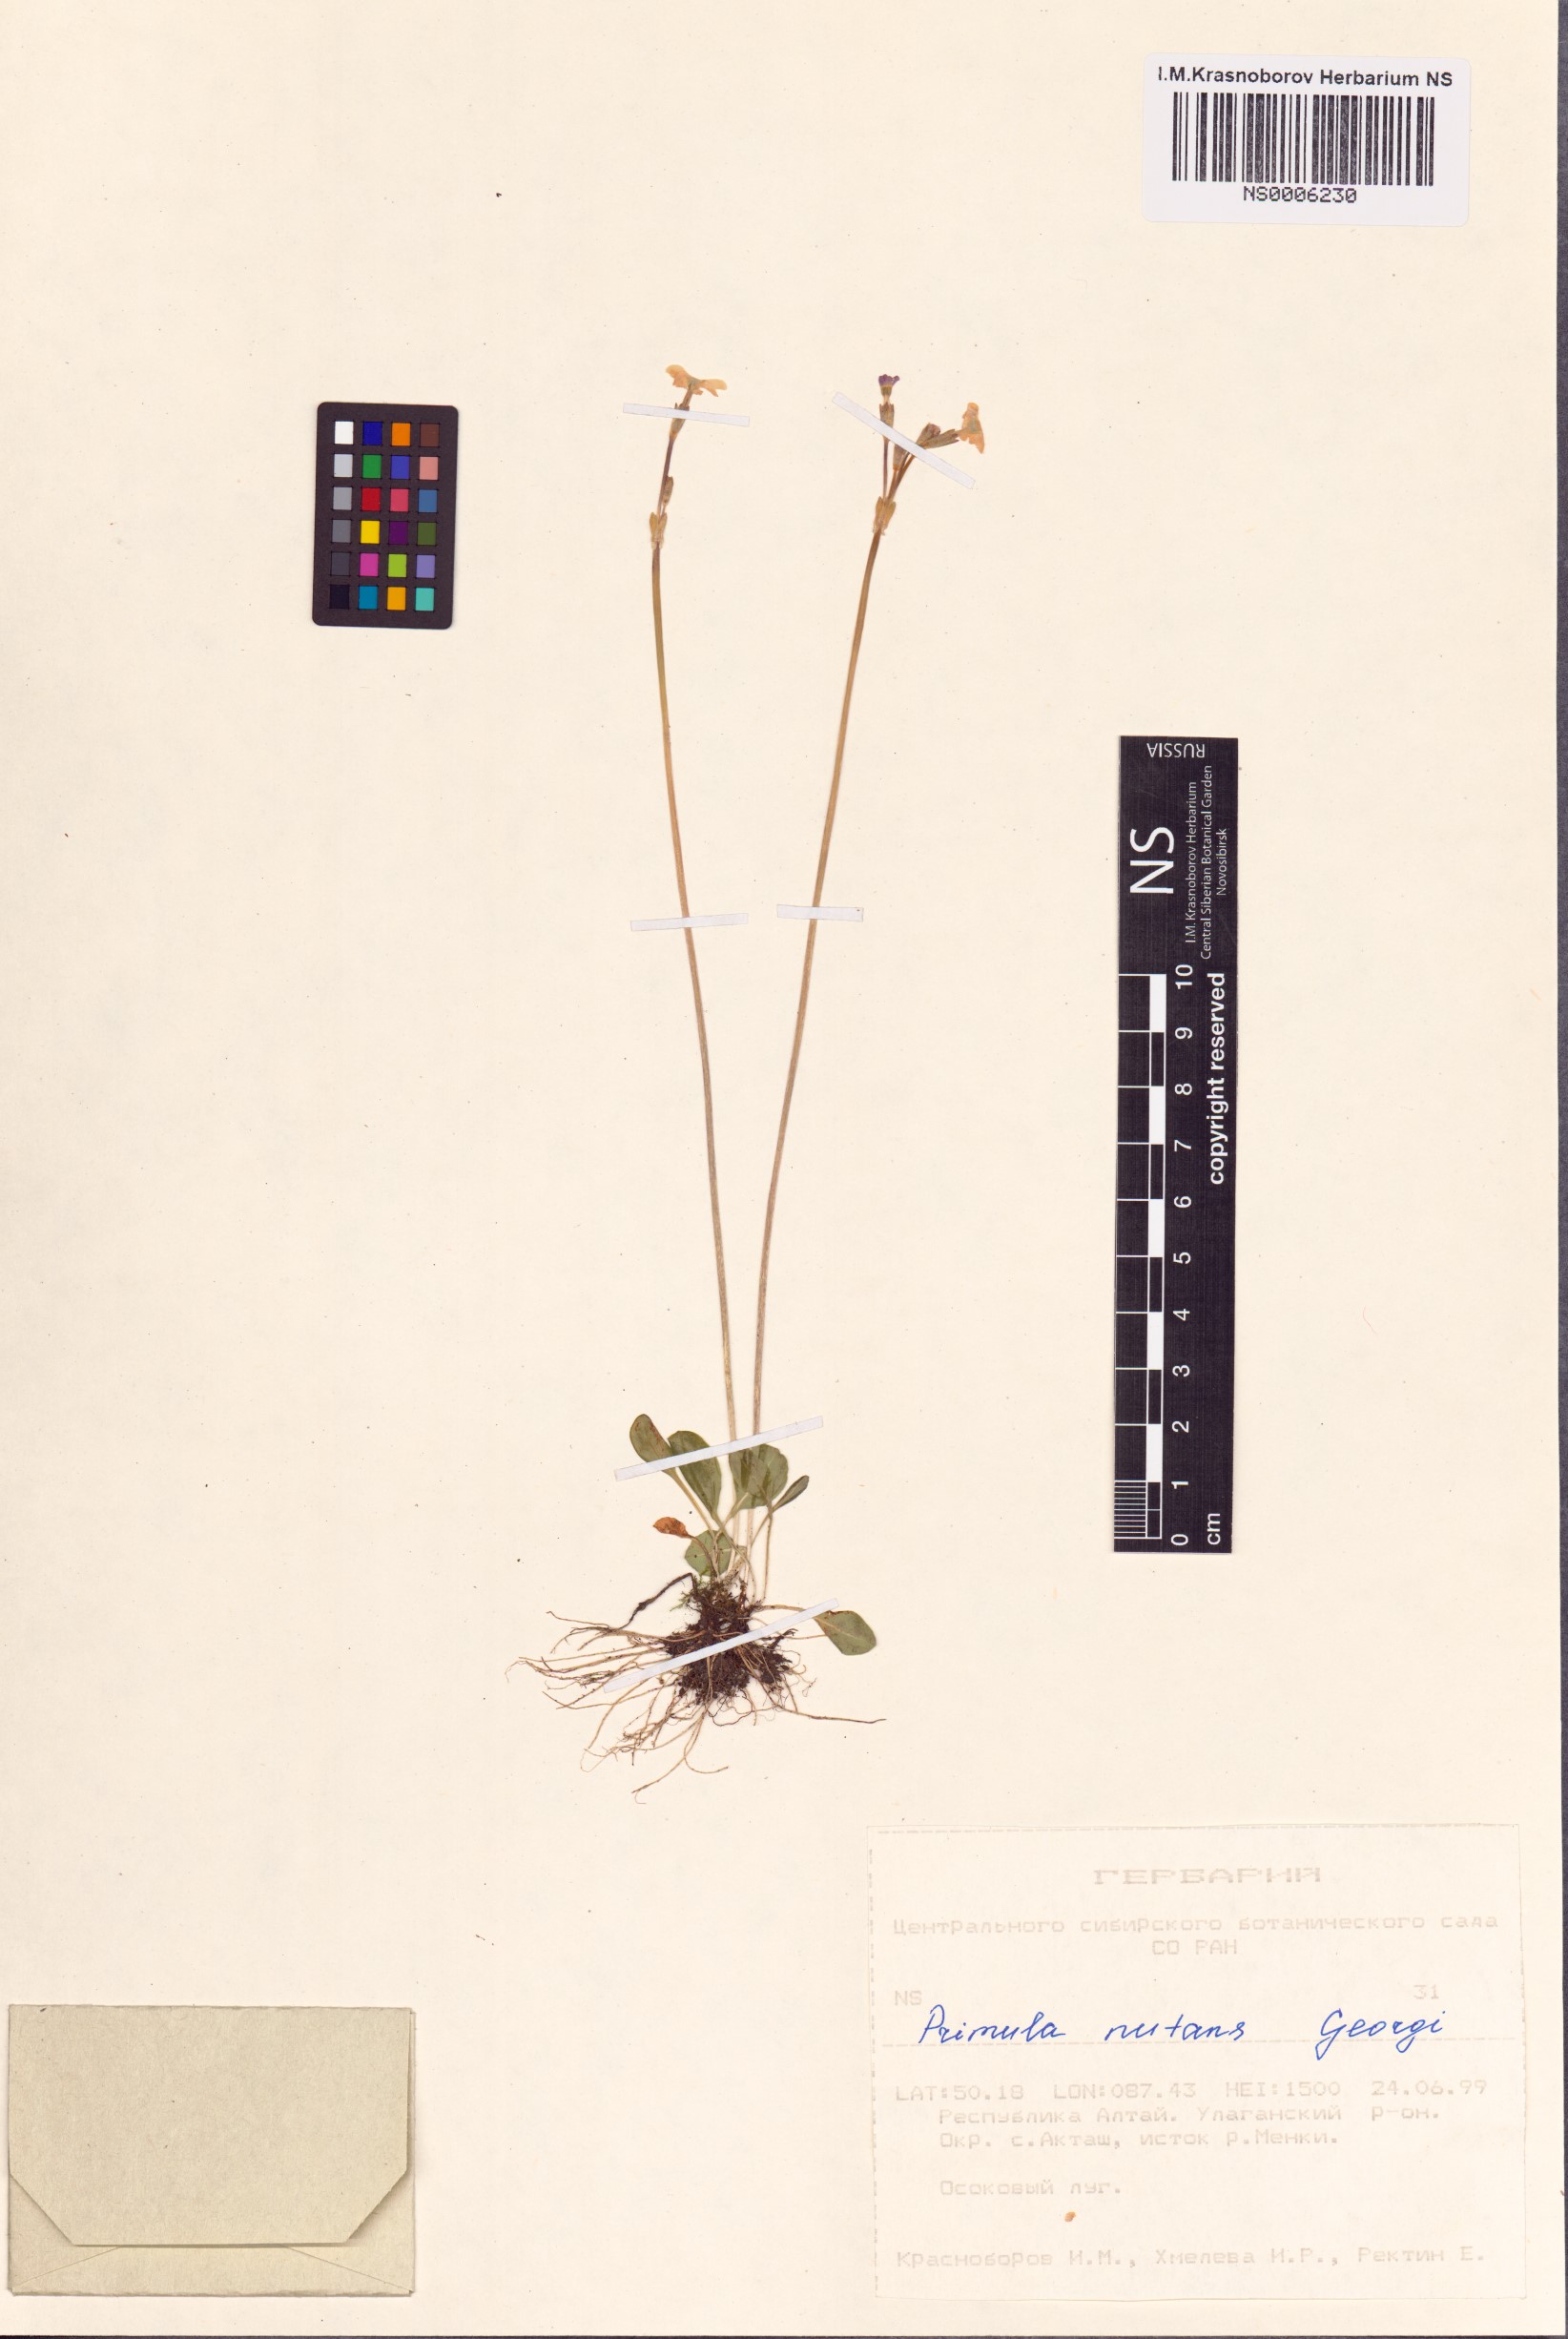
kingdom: Plantae
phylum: Tracheophyta
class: Magnoliopsida
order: Ericales
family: Primulaceae
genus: Primula
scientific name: Primula nutans
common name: Siberian primrose
